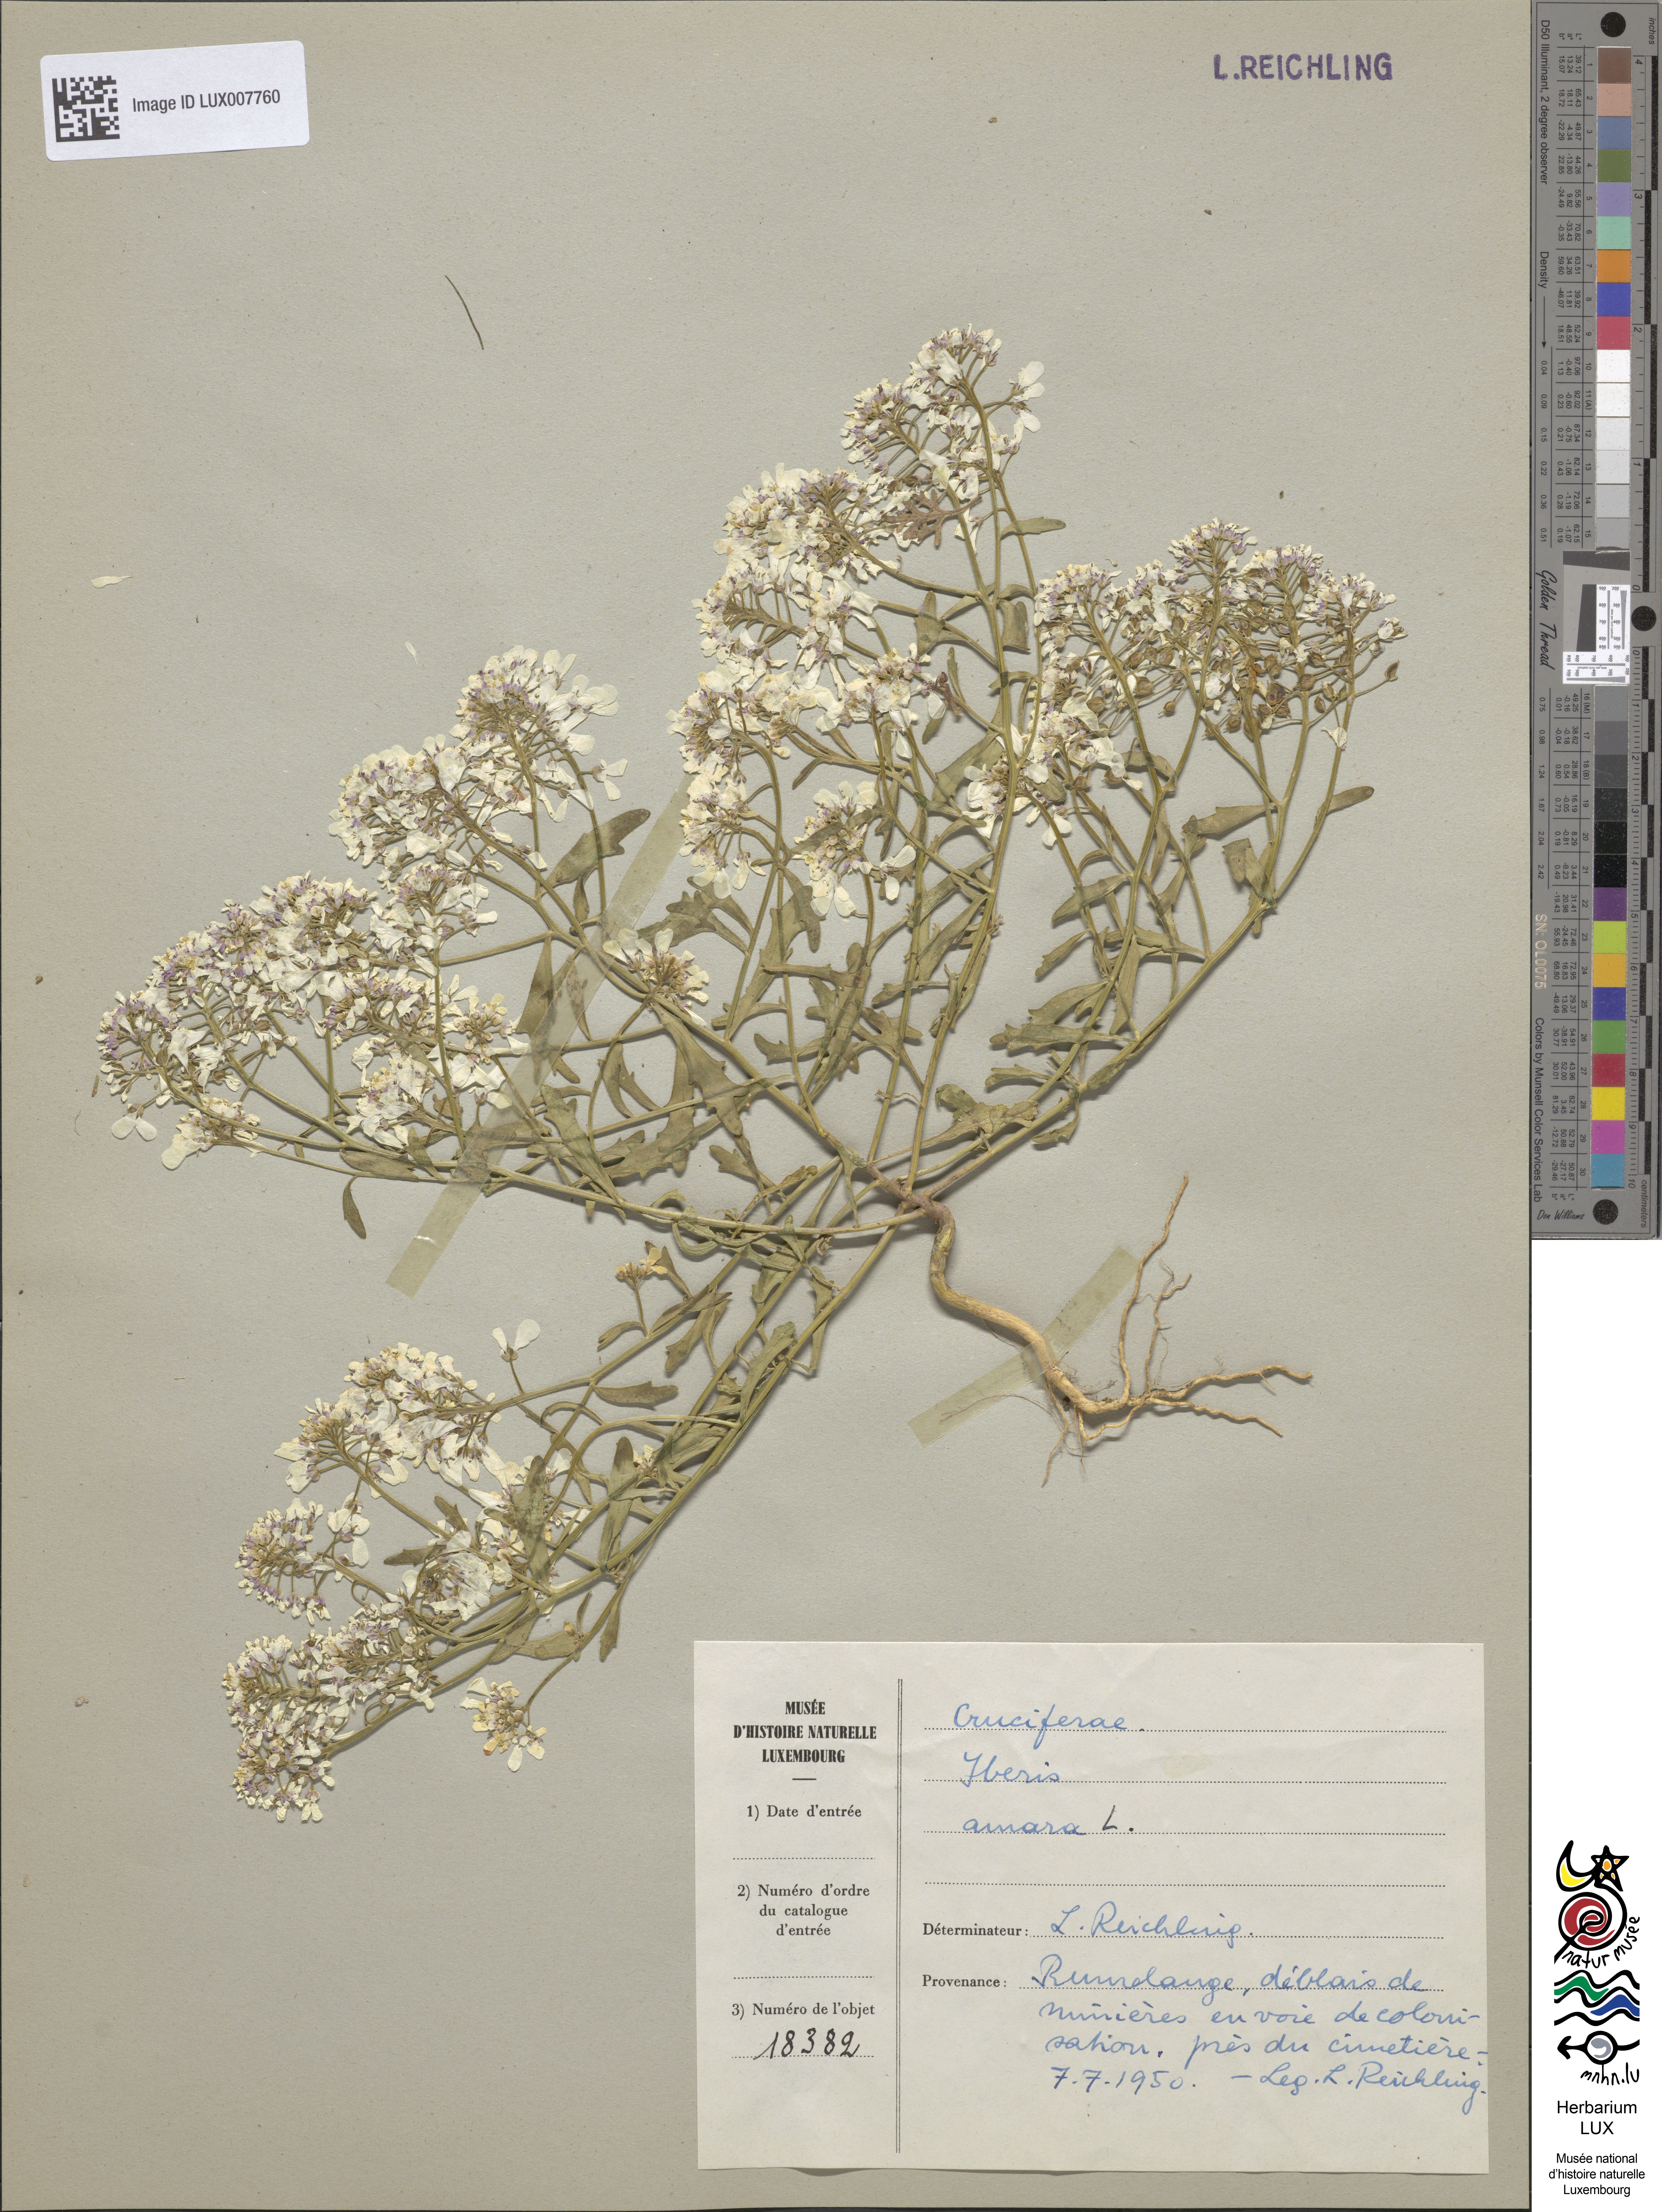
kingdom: Plantae
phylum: Tracheophyta
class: Magnoliopsida
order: Brassicales
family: Brassicaceae
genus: Iberis
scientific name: Iberis amara
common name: Annual candytuft
